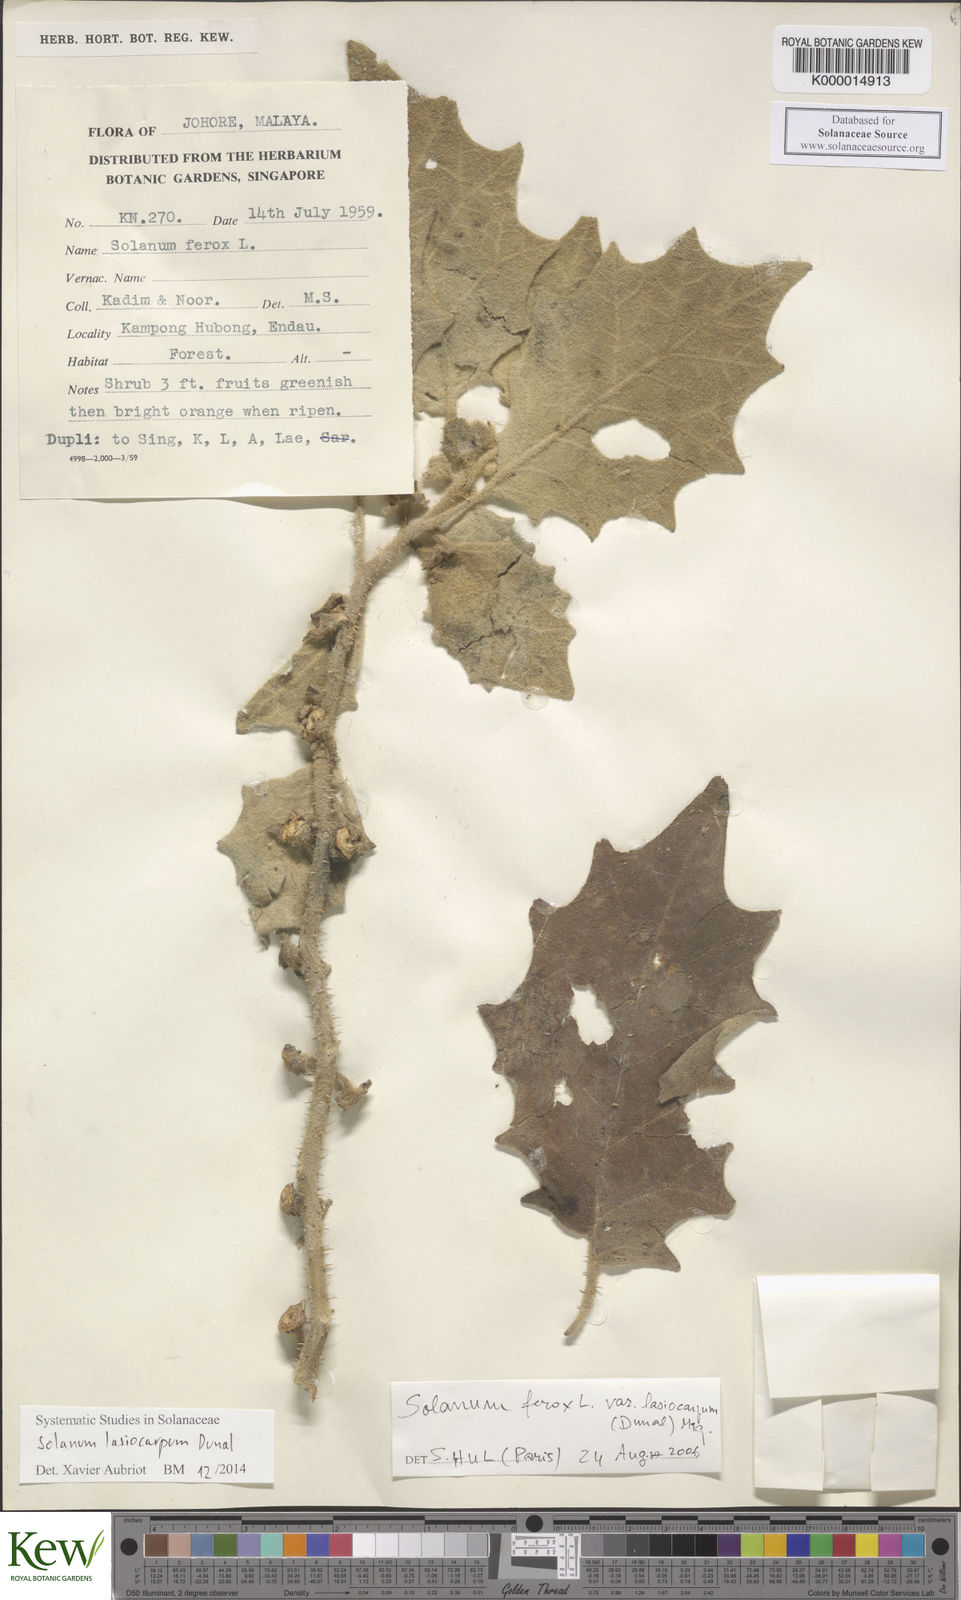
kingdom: Plantae
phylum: Tracheophyta
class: Magnoliopsida
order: Solanales
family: Solanaceae
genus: Solanum
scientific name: Solanum lasiocarpum
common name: Indian nightshade
